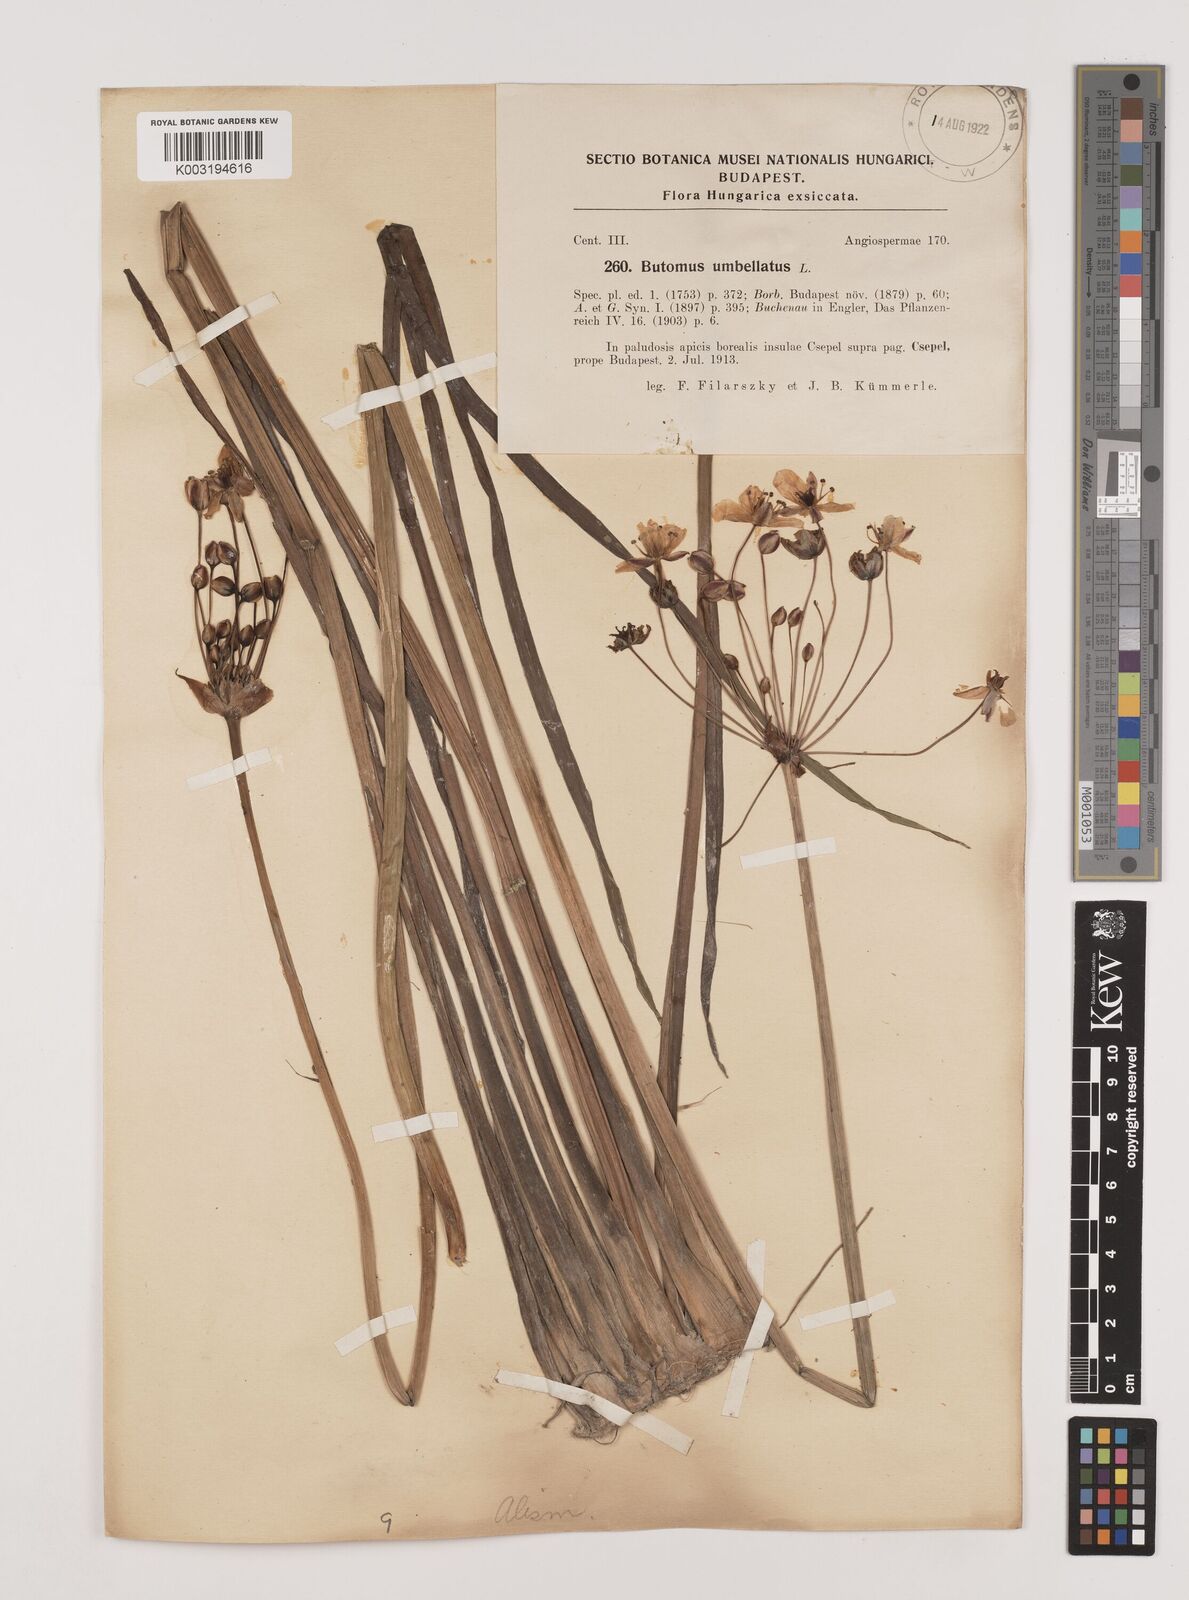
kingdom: Plantae
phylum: Tracheophyta
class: Liliopsida
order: Alismatales
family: Butomaceae
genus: Butomus
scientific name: Butomus umbellatus
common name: Flowering-rush
